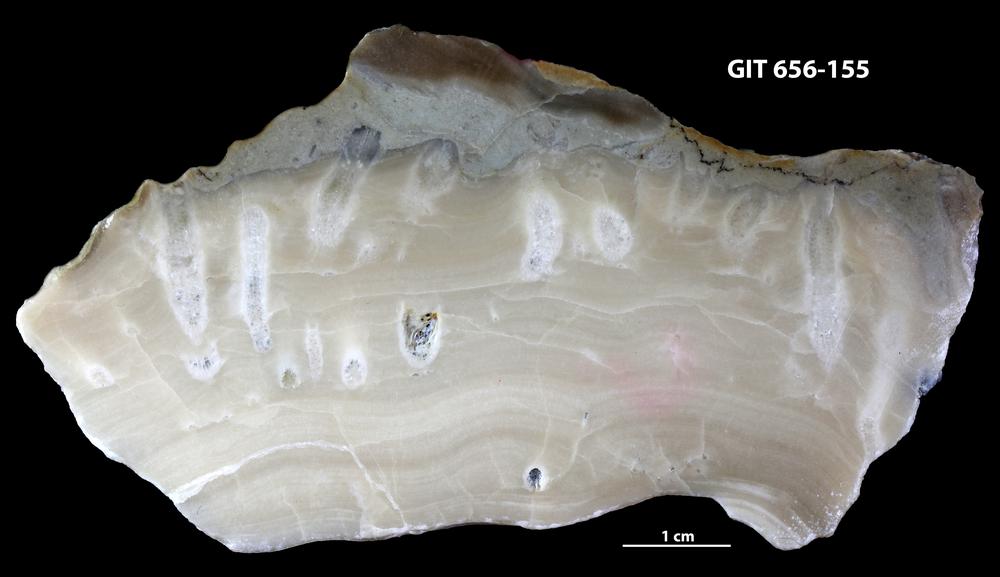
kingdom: Animalia
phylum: Porifera
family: Stromatoporidae
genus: Stromatopora
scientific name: Stromatopora
